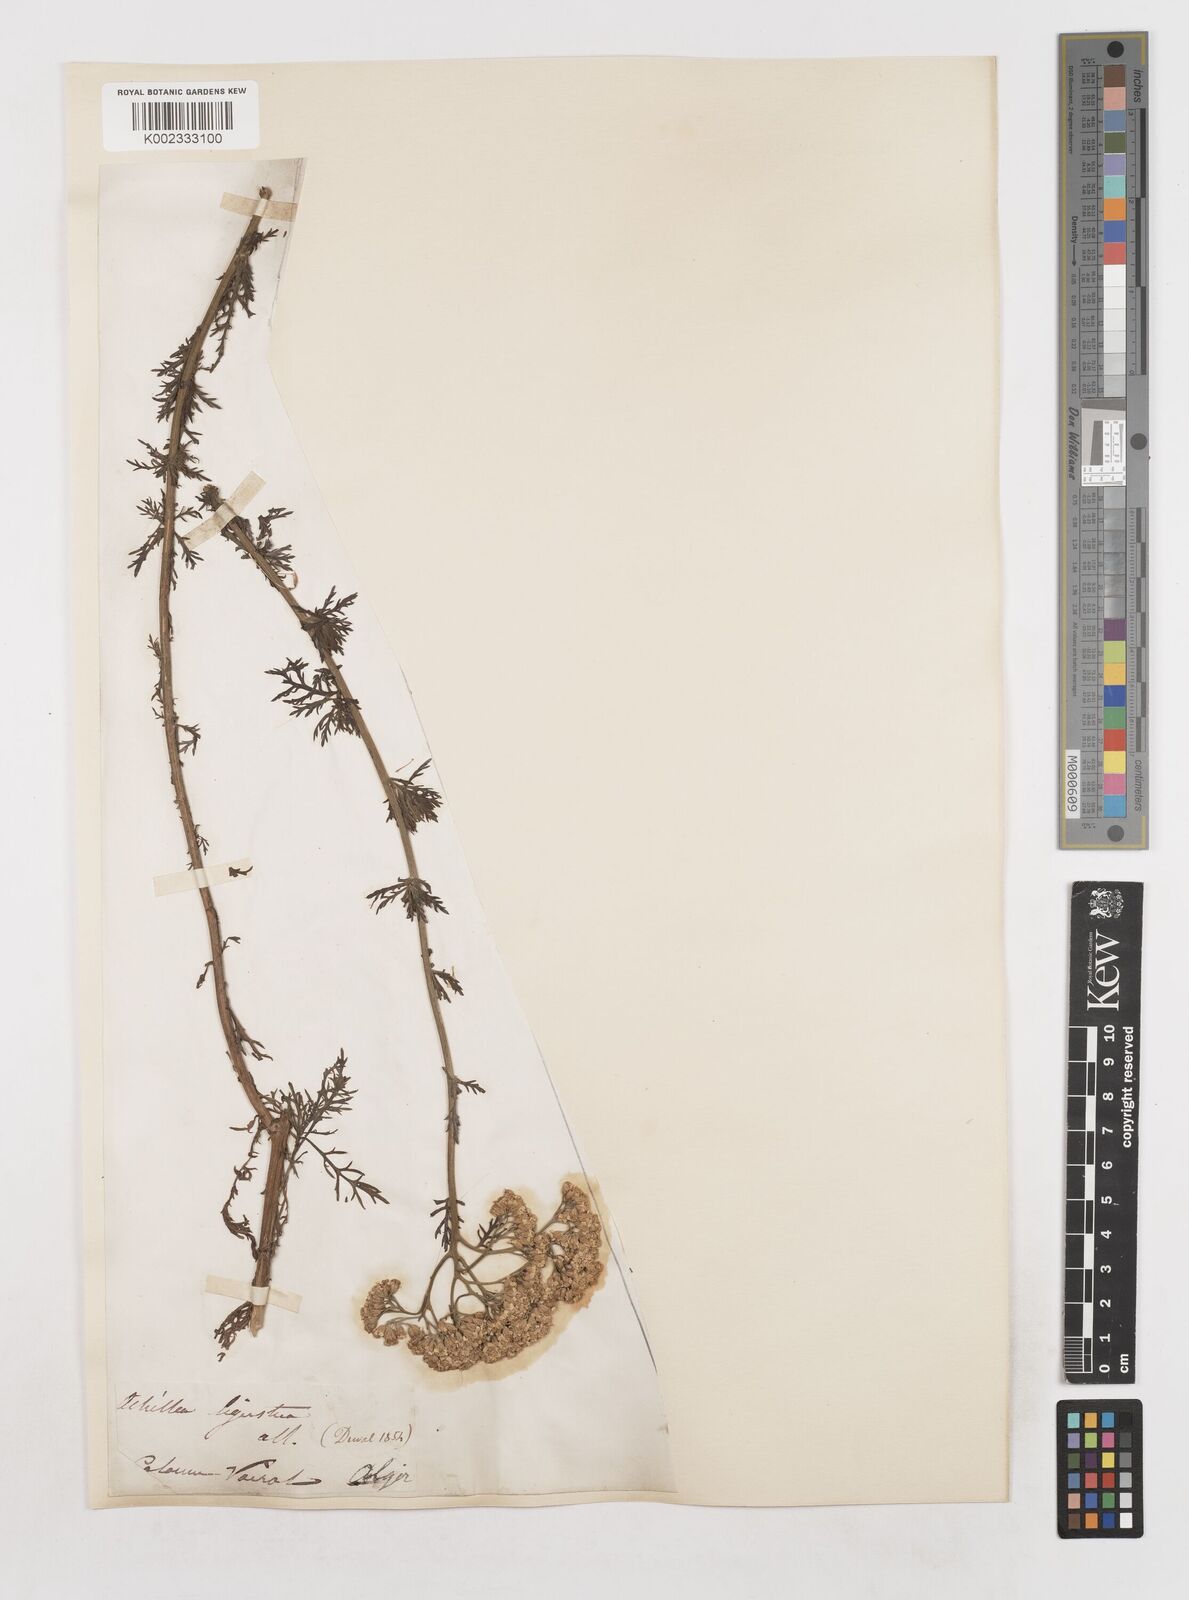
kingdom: Plantae
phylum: Tracheophyta
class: Magnoliopsida
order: Asterales
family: Asteraceae
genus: Achillea
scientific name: Achillea ligustica
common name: Southern yarrow
